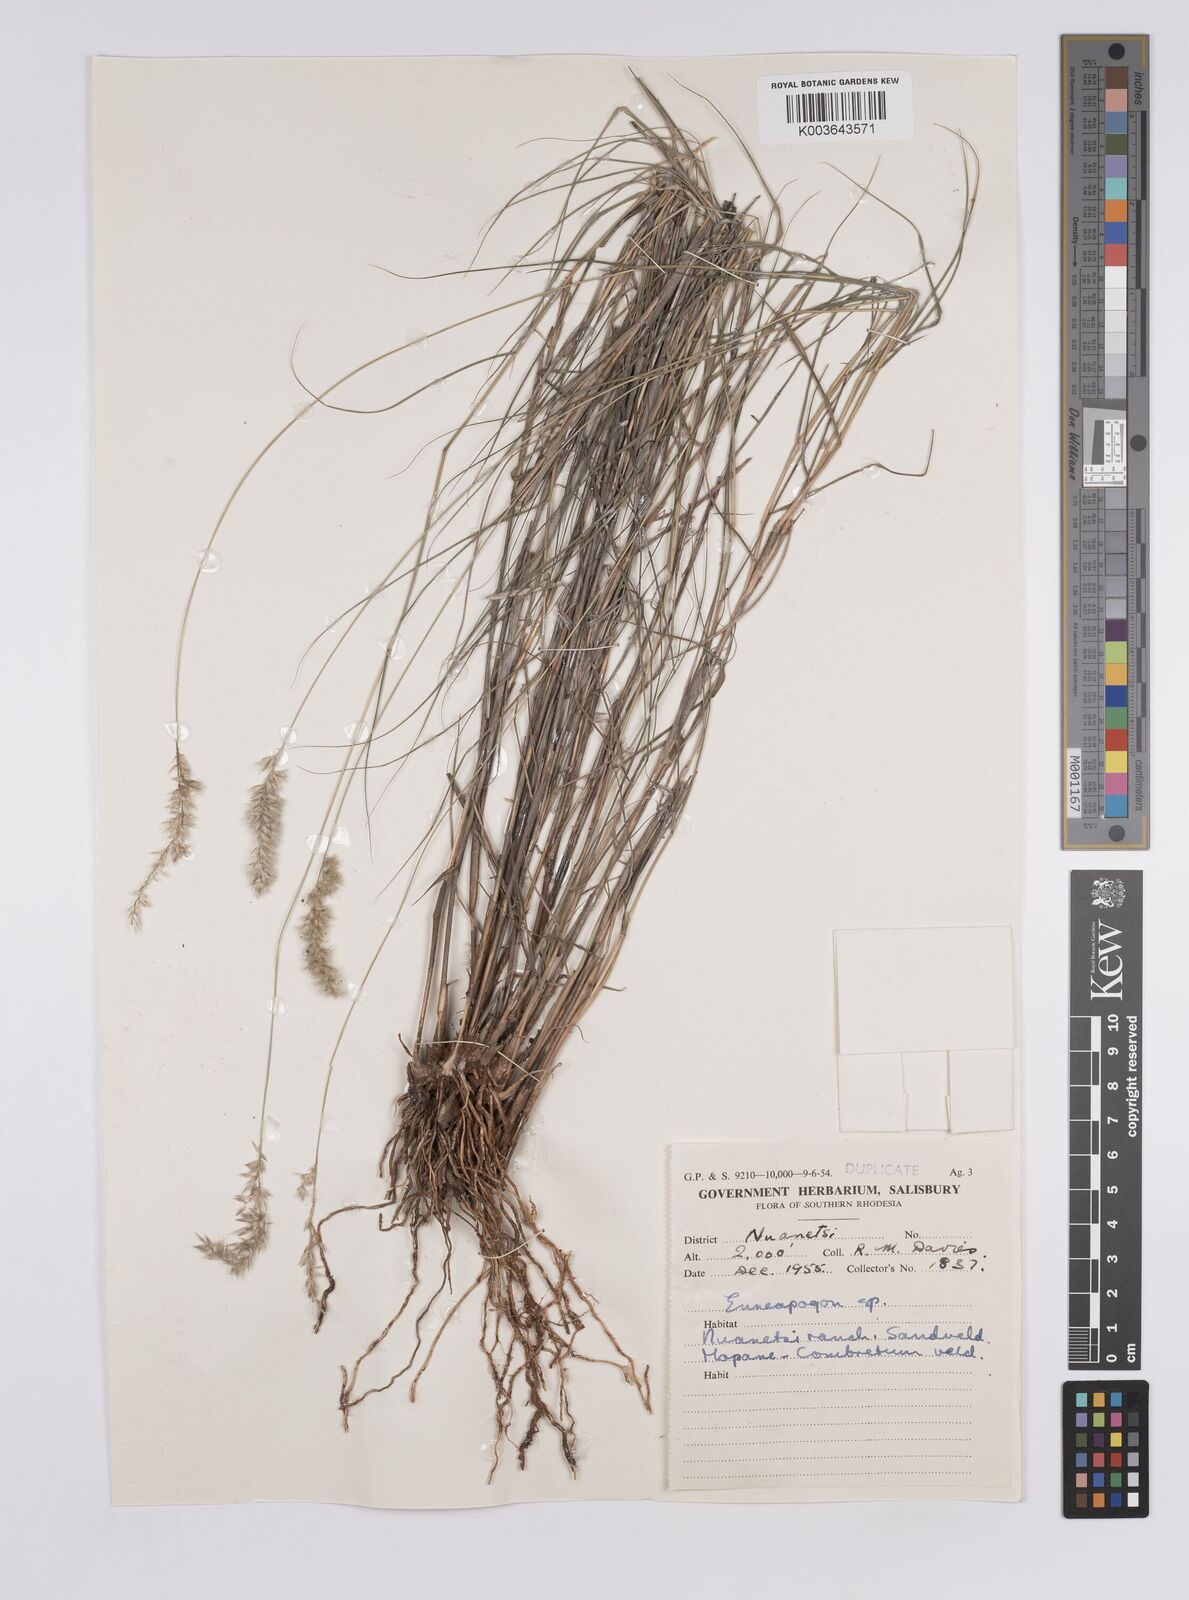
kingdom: Plantae
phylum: Tracheophyta
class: Liliopsida
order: Poales
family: Poaceae
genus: Enneapogon
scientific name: Enneapogon scoparius
